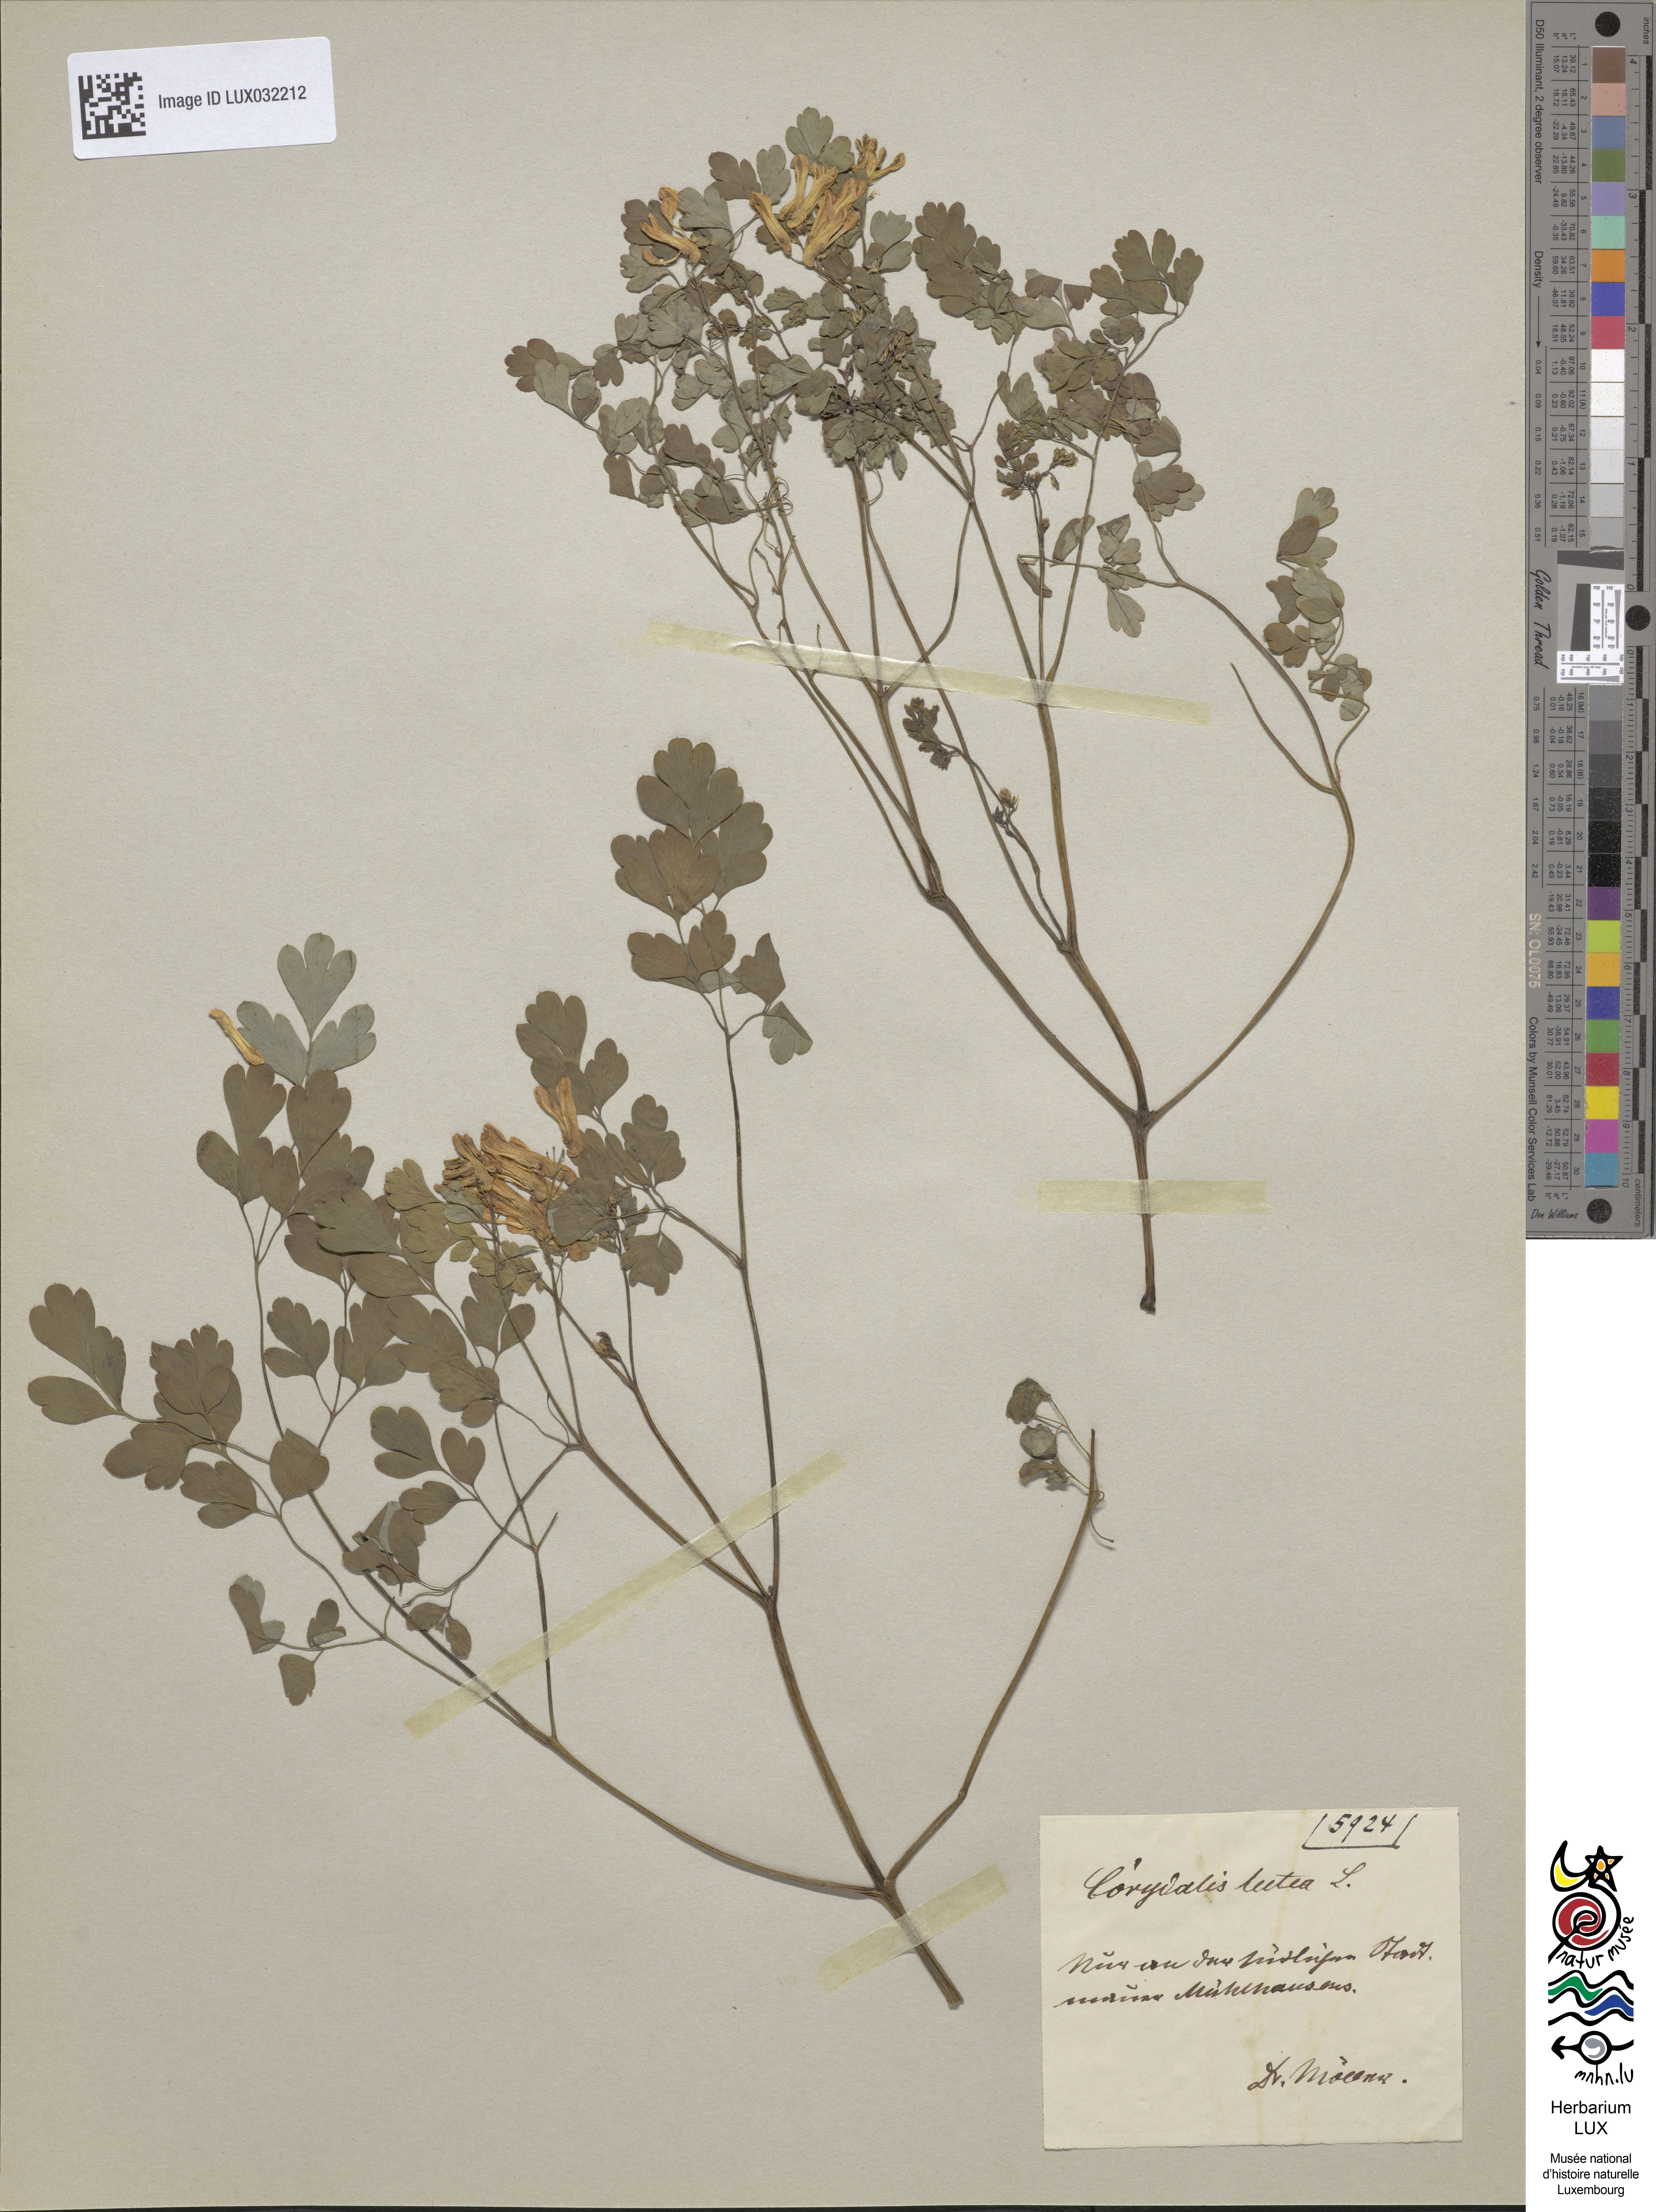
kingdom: Plantae
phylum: Tracheophyta
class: Magnoliopsida
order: Ranunculales
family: Papaveraceae
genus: Pseudofumaria
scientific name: Pseudofumaria lutea
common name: Yellow corydalis
